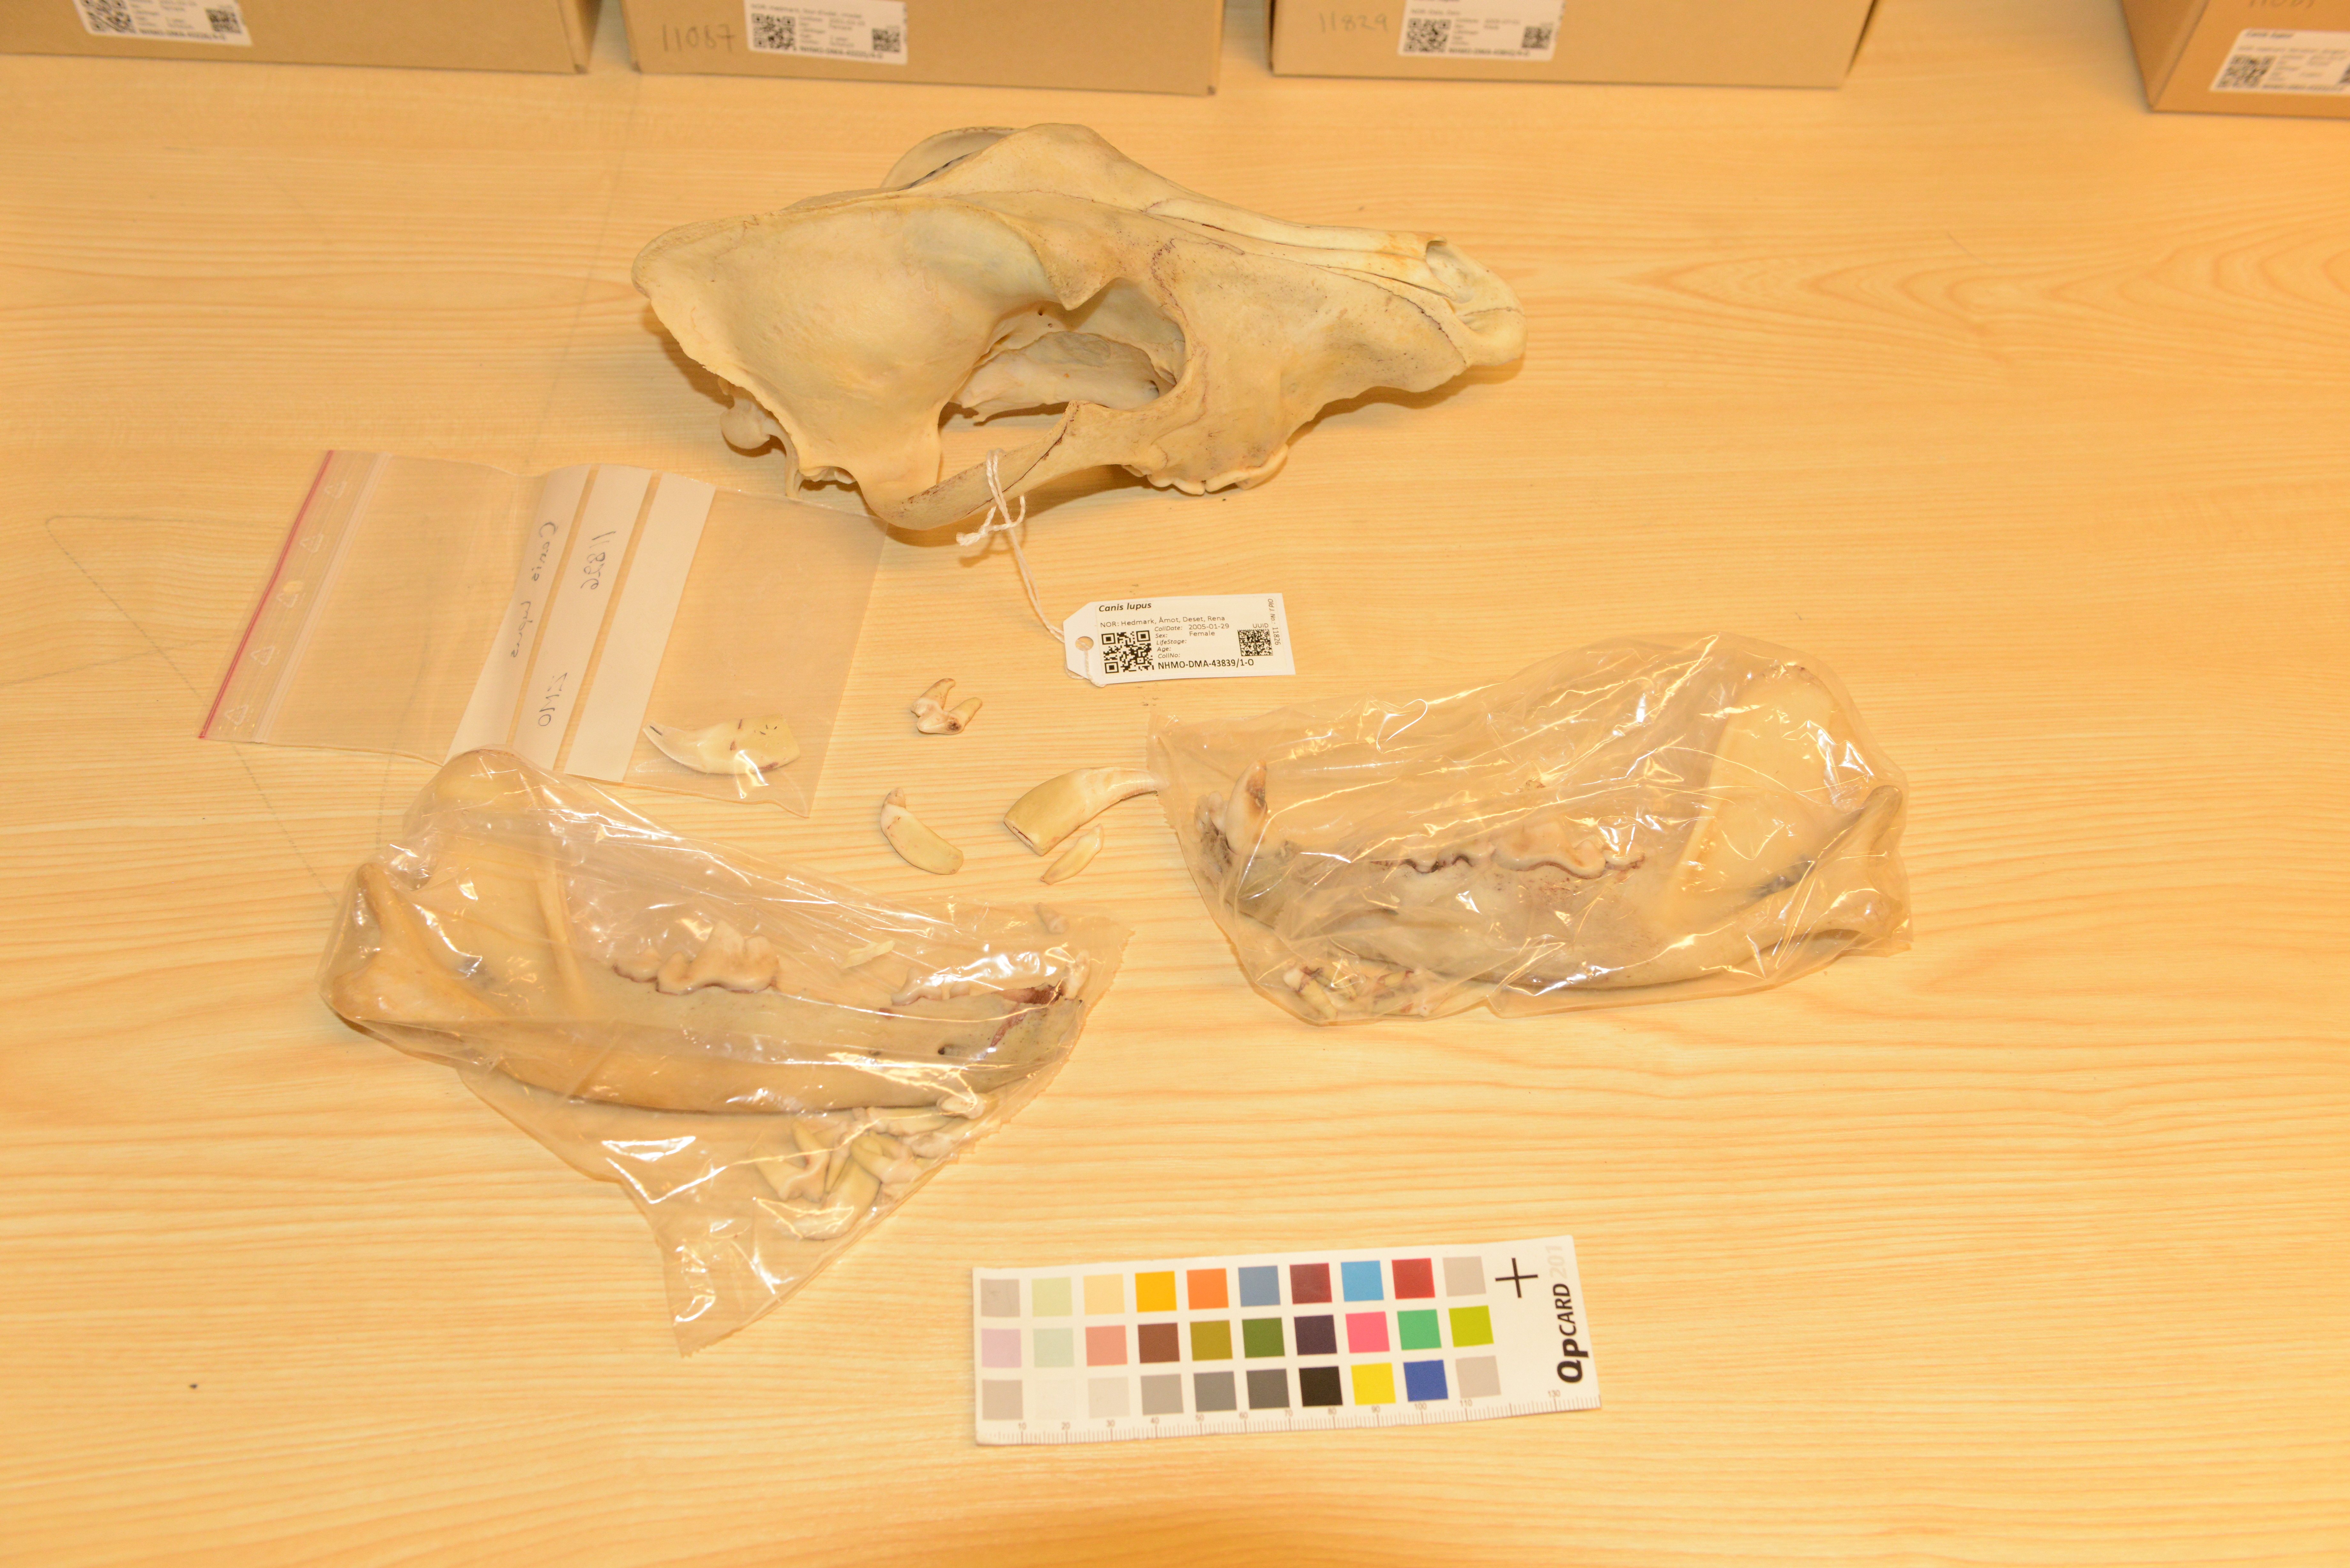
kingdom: Animalia
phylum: Chordata
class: Mammalia
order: Carnivora
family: Canidae
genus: Canis
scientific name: Canis lupus
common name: Gray wolf
